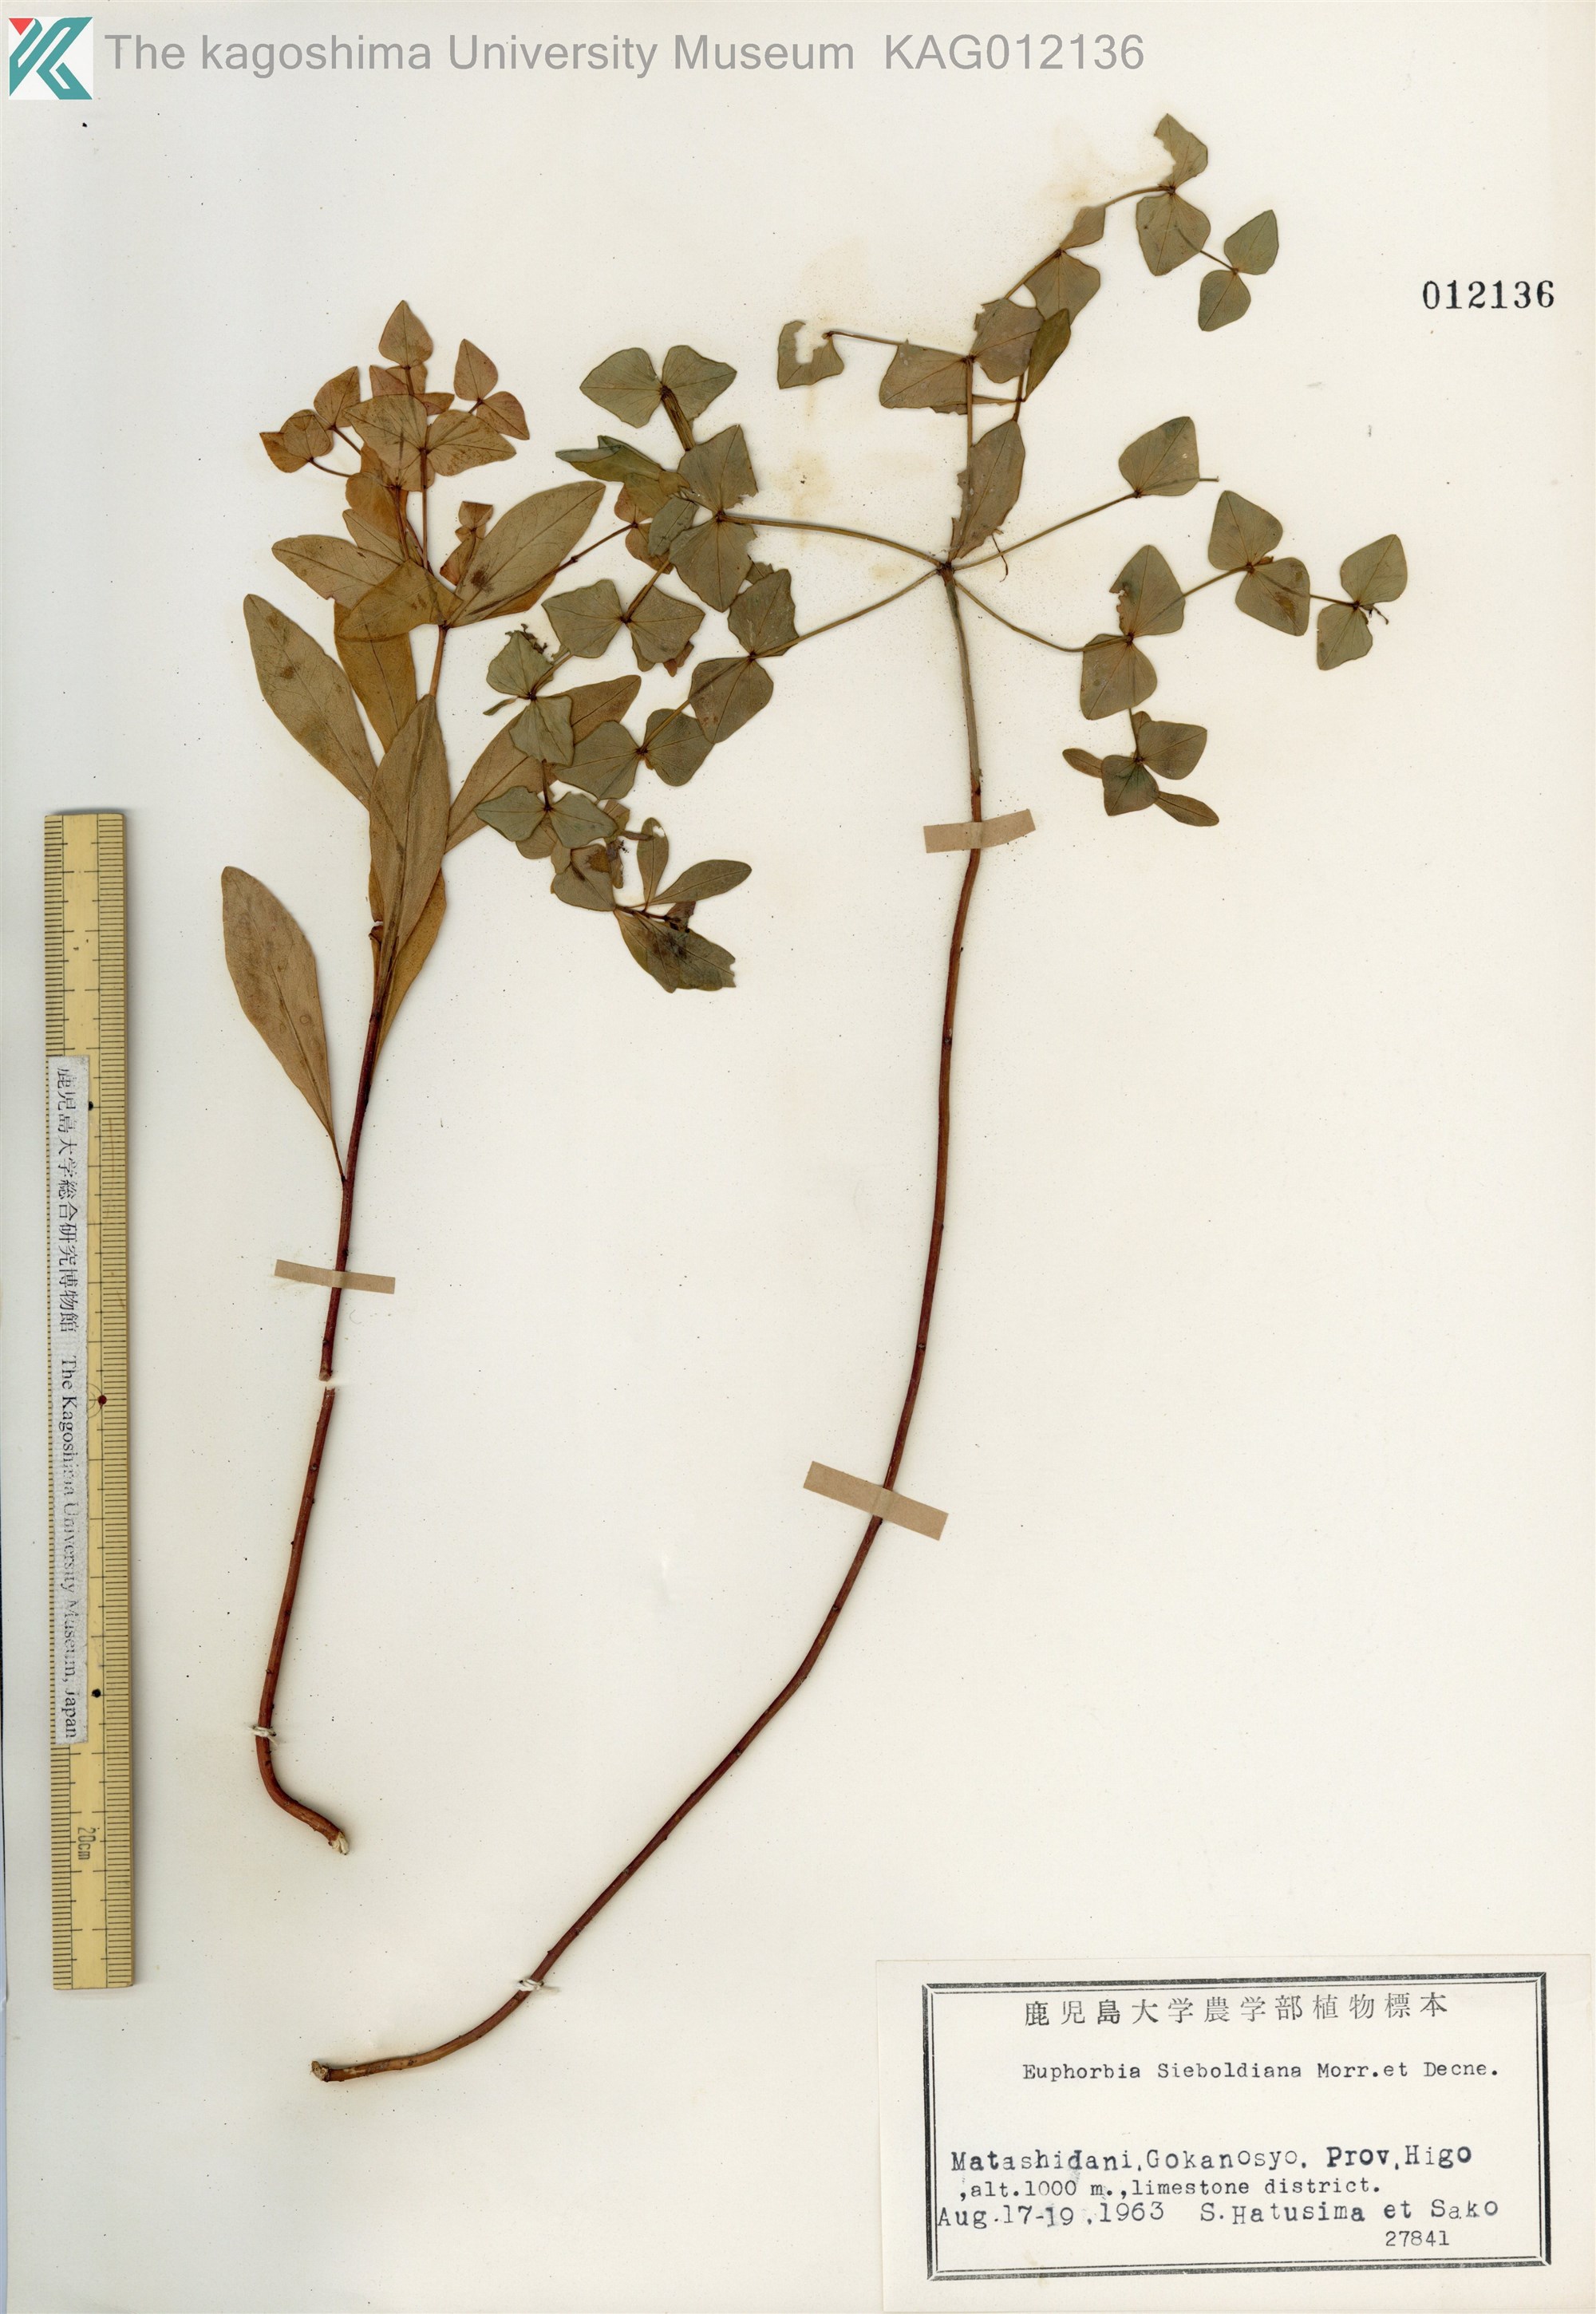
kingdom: Plantae
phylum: Tracheophyta
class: Magnoliopsida
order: Malpighiales
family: Euphorbiaceae
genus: Euphorbia
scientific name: Euphorbia sieboldiana
